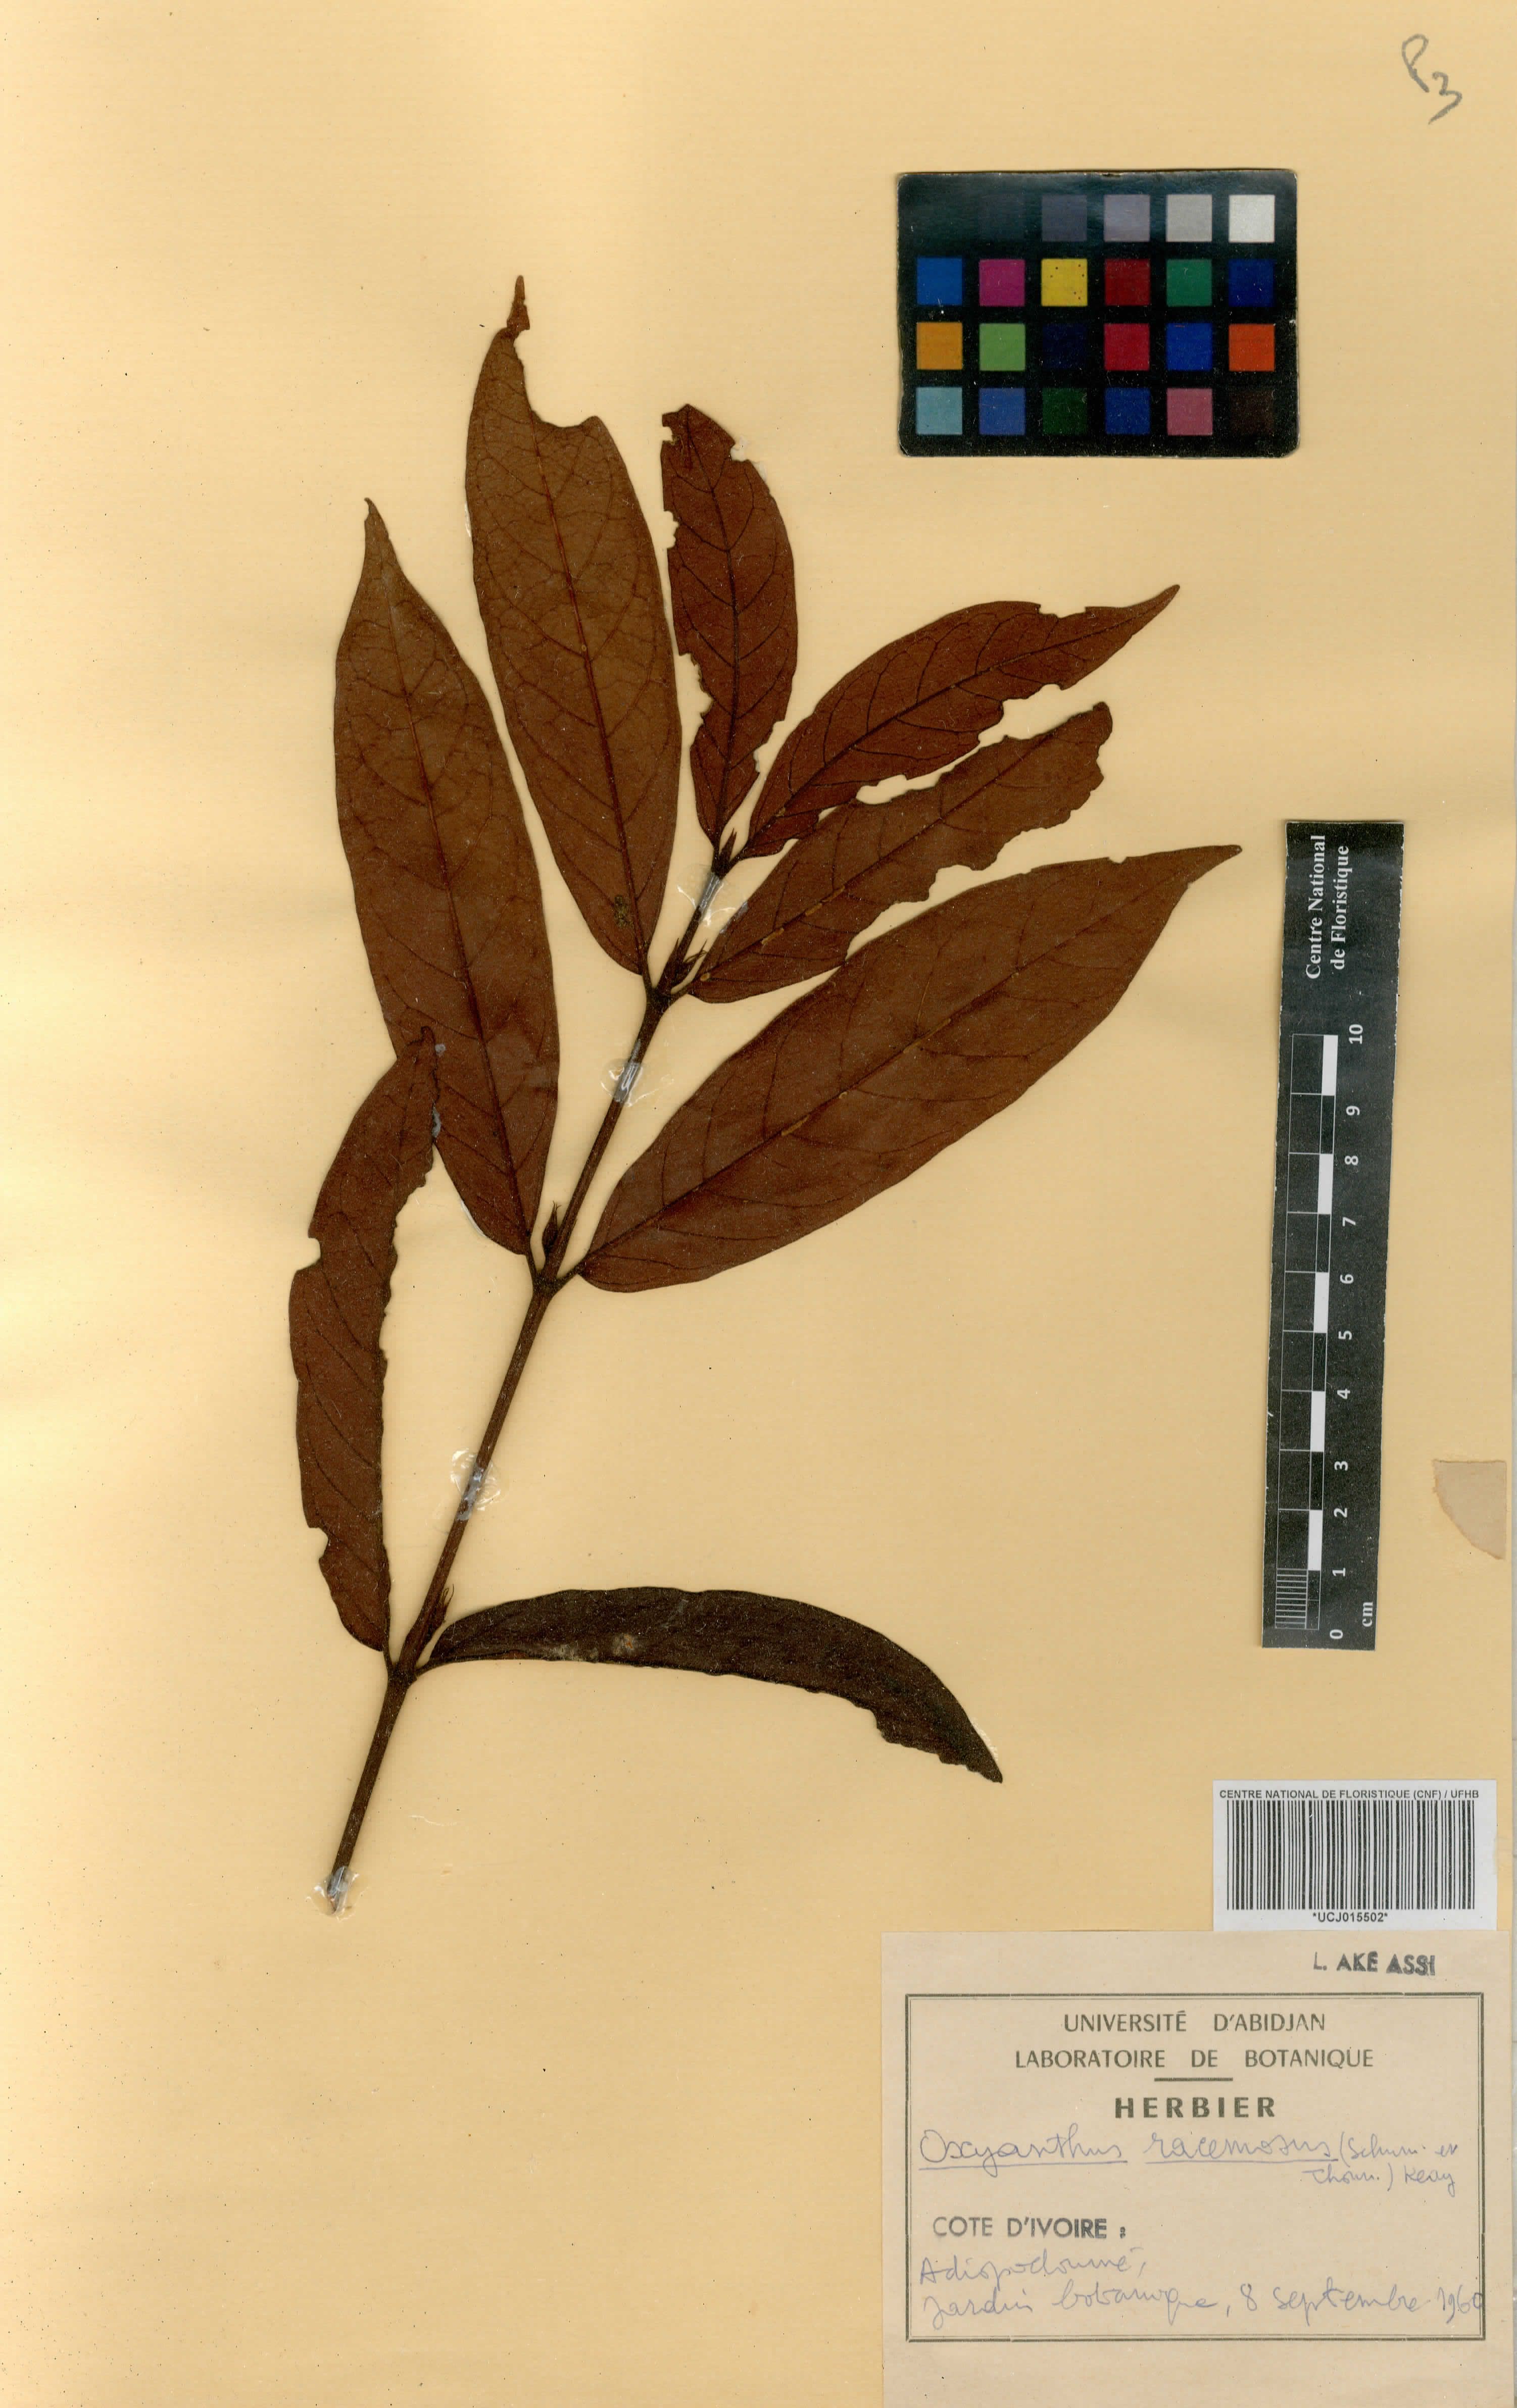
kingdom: Plantae
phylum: Tracheophyta
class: Magnoliopsida
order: Gentianales
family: Rubiaceae
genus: Oxyanthus
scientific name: Oxyanthus racemosus
